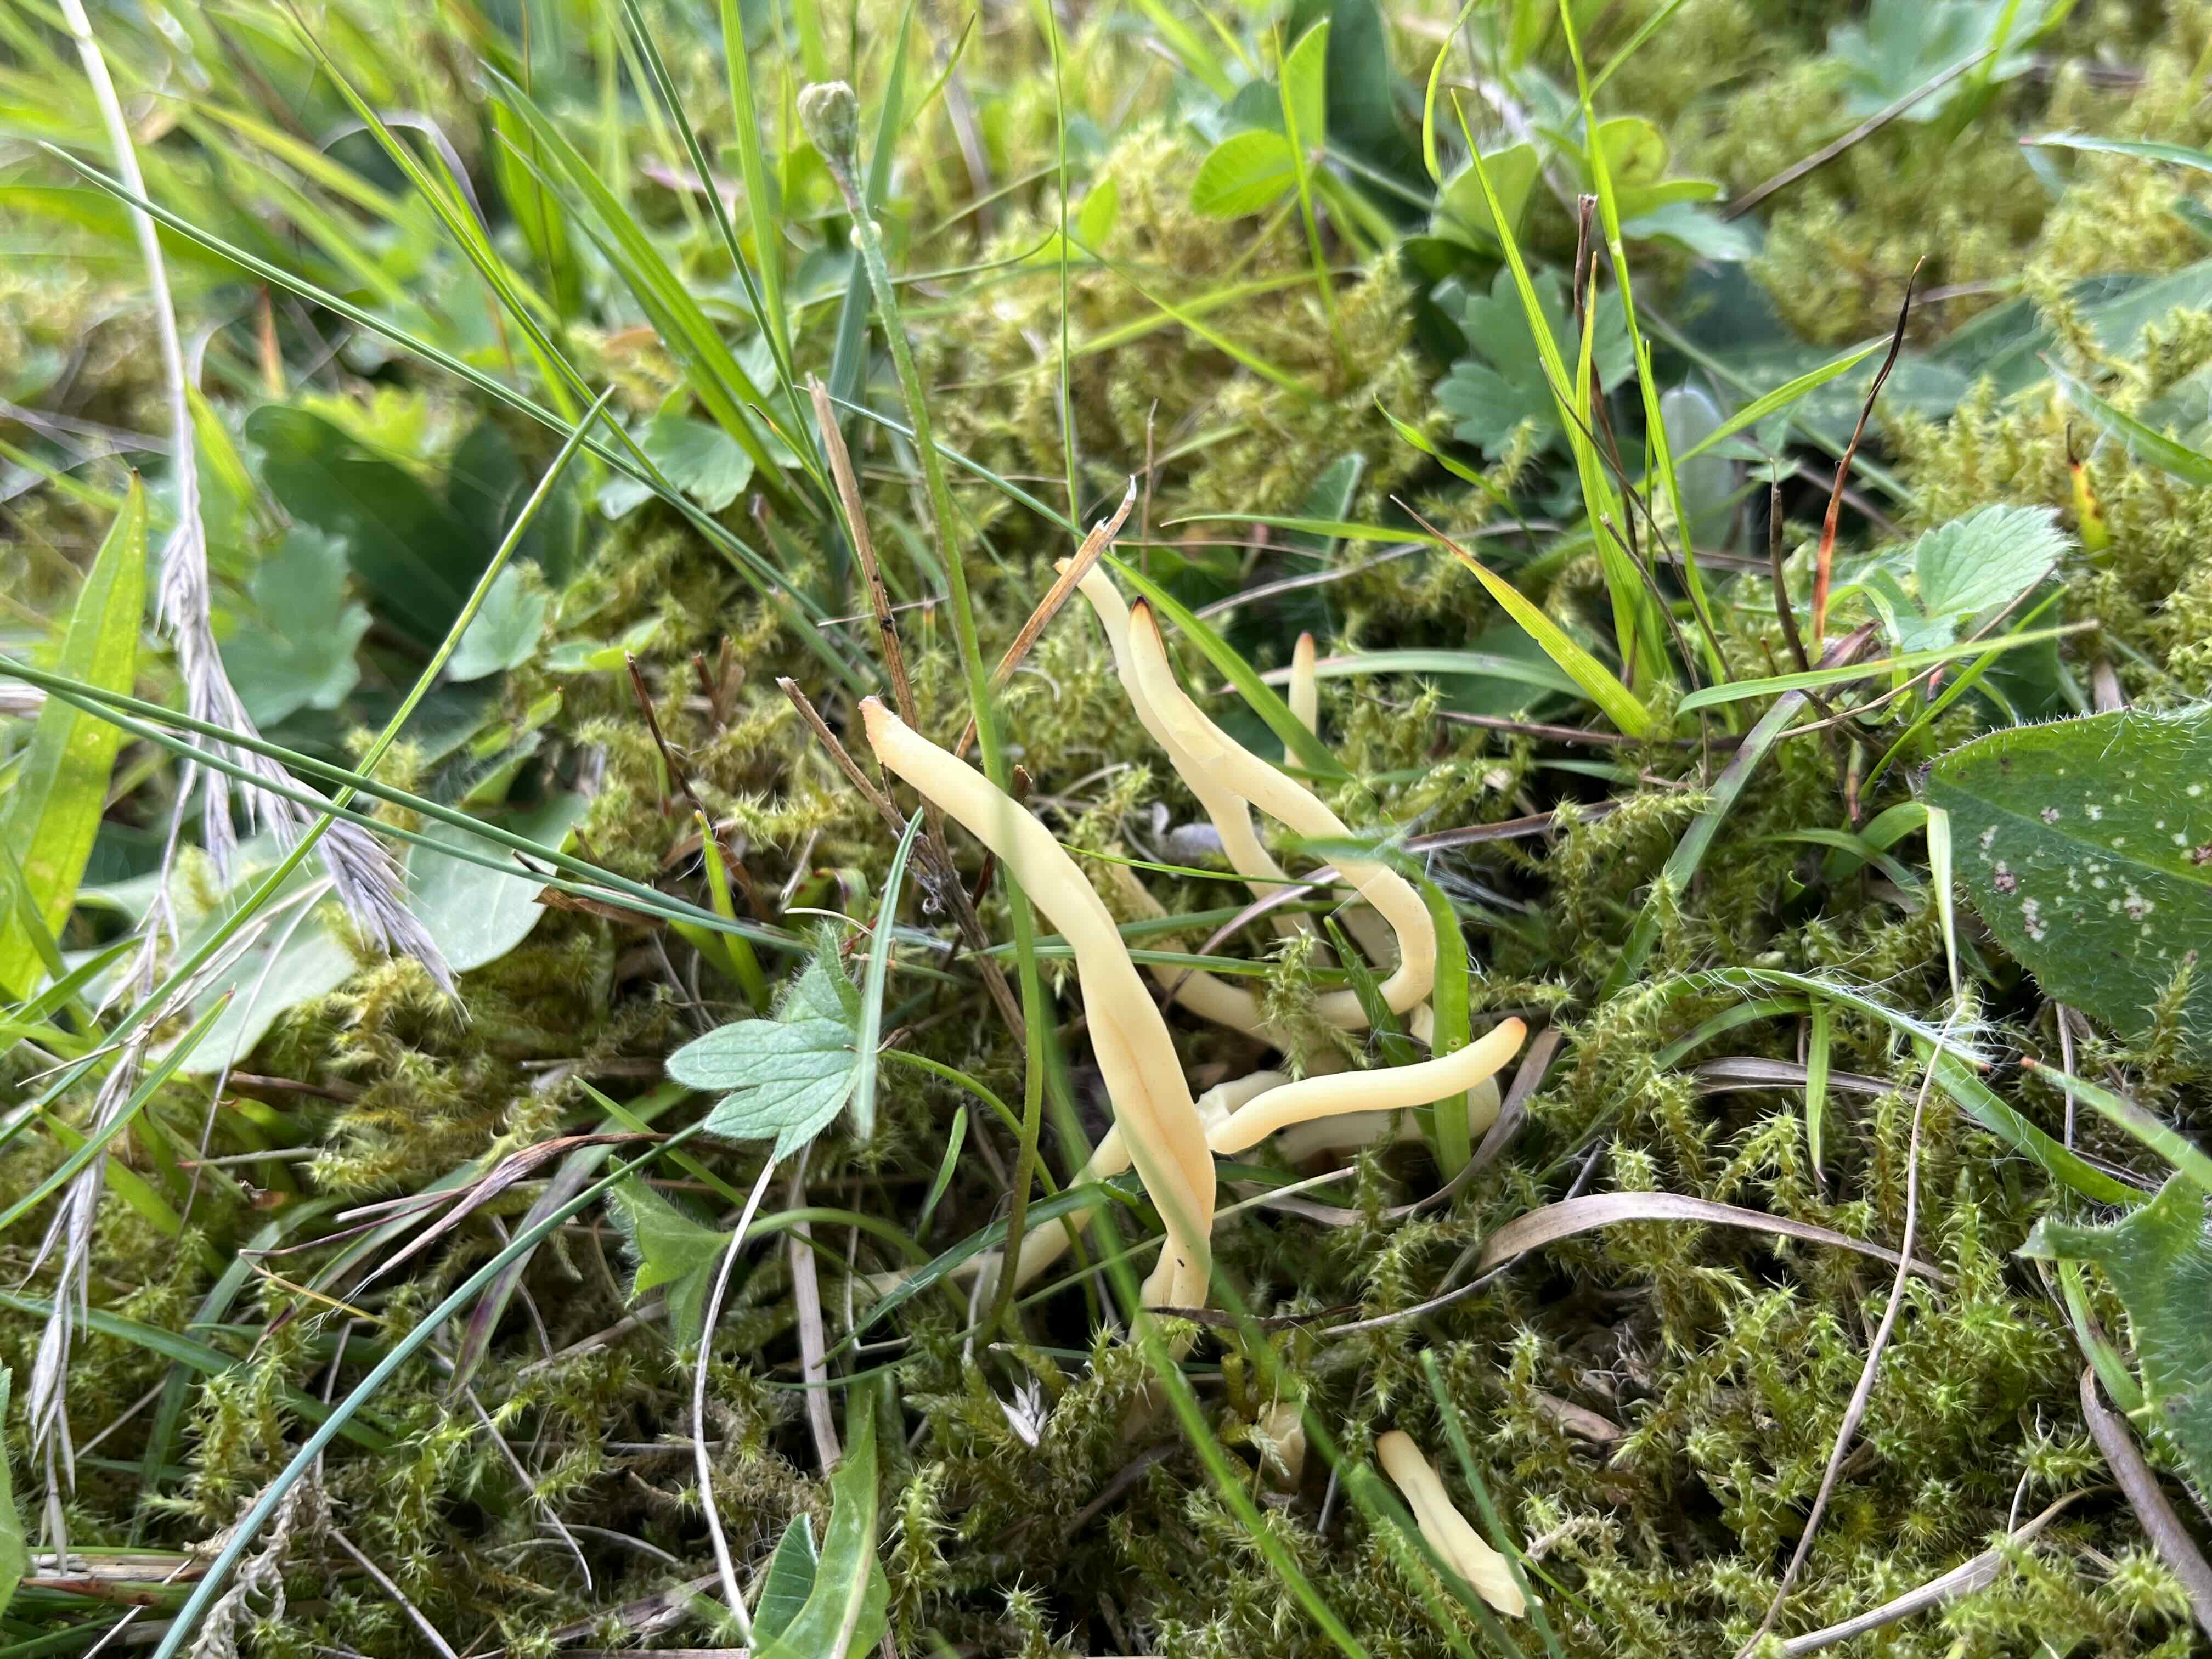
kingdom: Fungi
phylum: Basidiomycota
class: Agaricomycetes
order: Agaricales
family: Clavariaceae
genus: Clavaria
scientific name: Clavaria amoenoides
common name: bleggul køllesvamp
